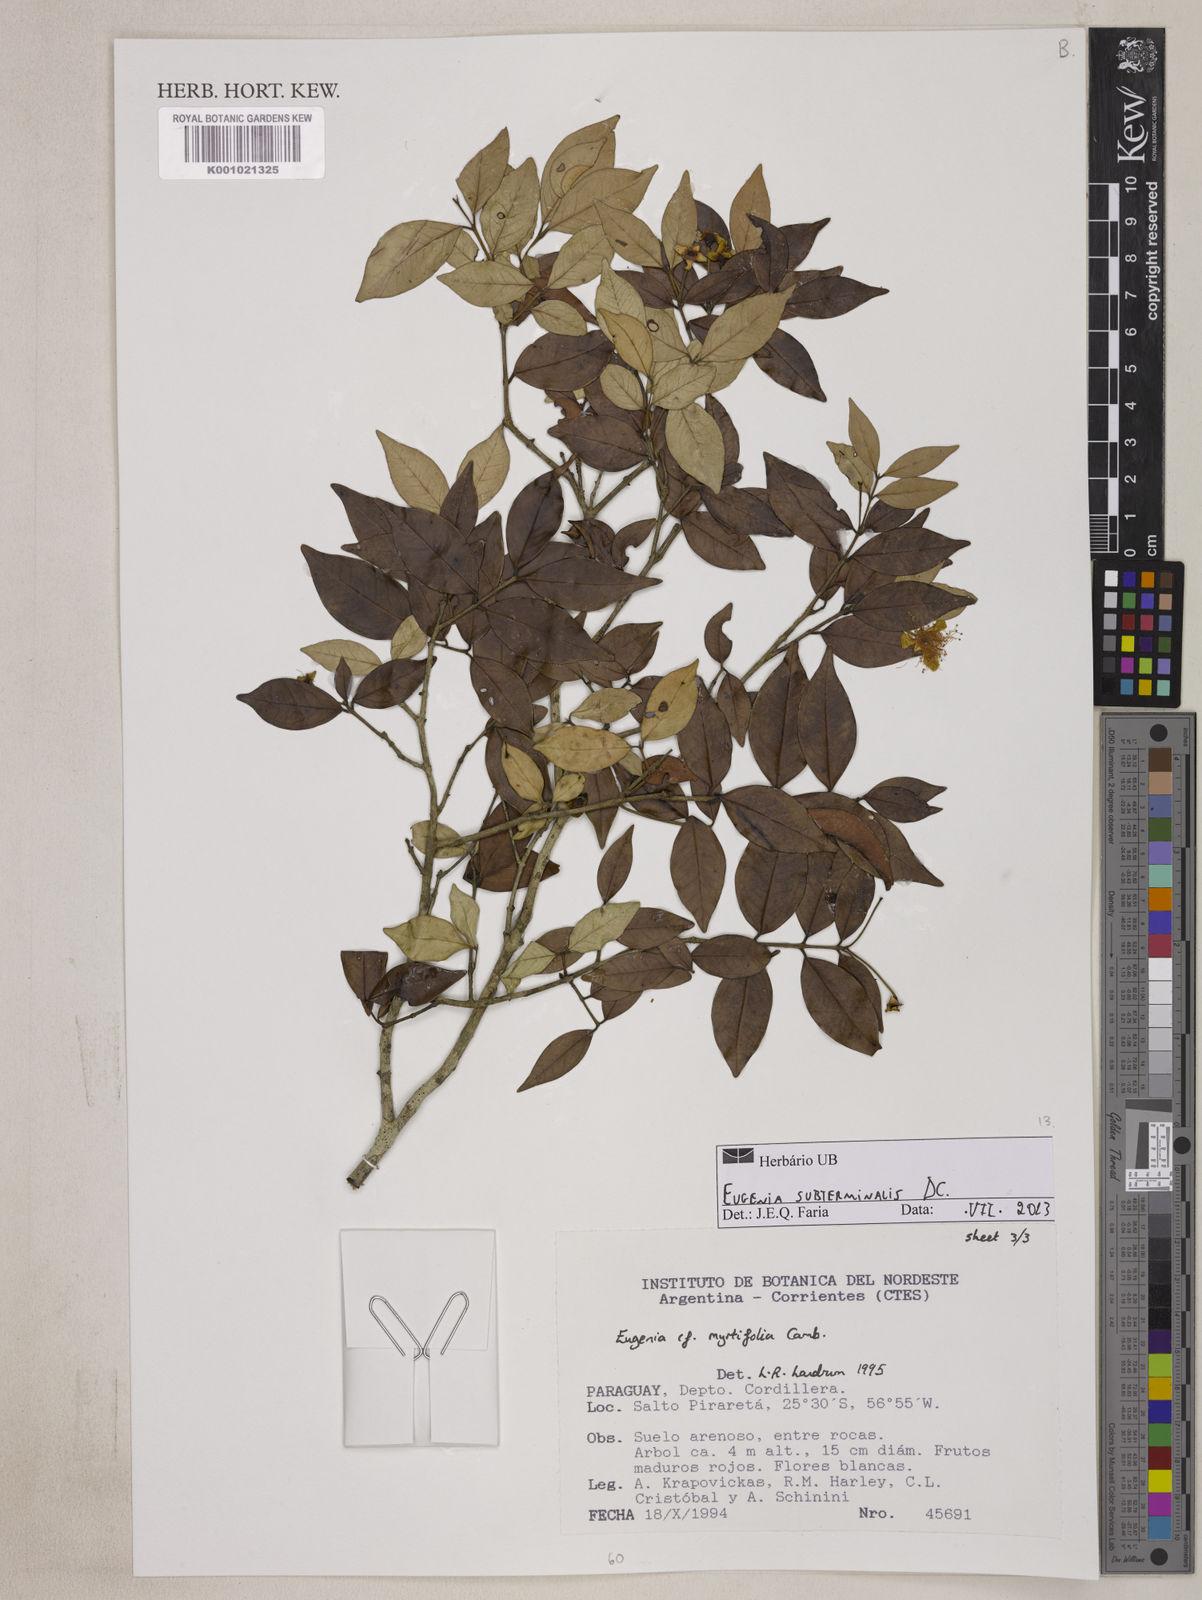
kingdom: Plantae
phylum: Tracheophyta
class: Magnoliopsida
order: Myrtales
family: Myrtaceae
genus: Eugenia
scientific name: Eugenia subterminalis
